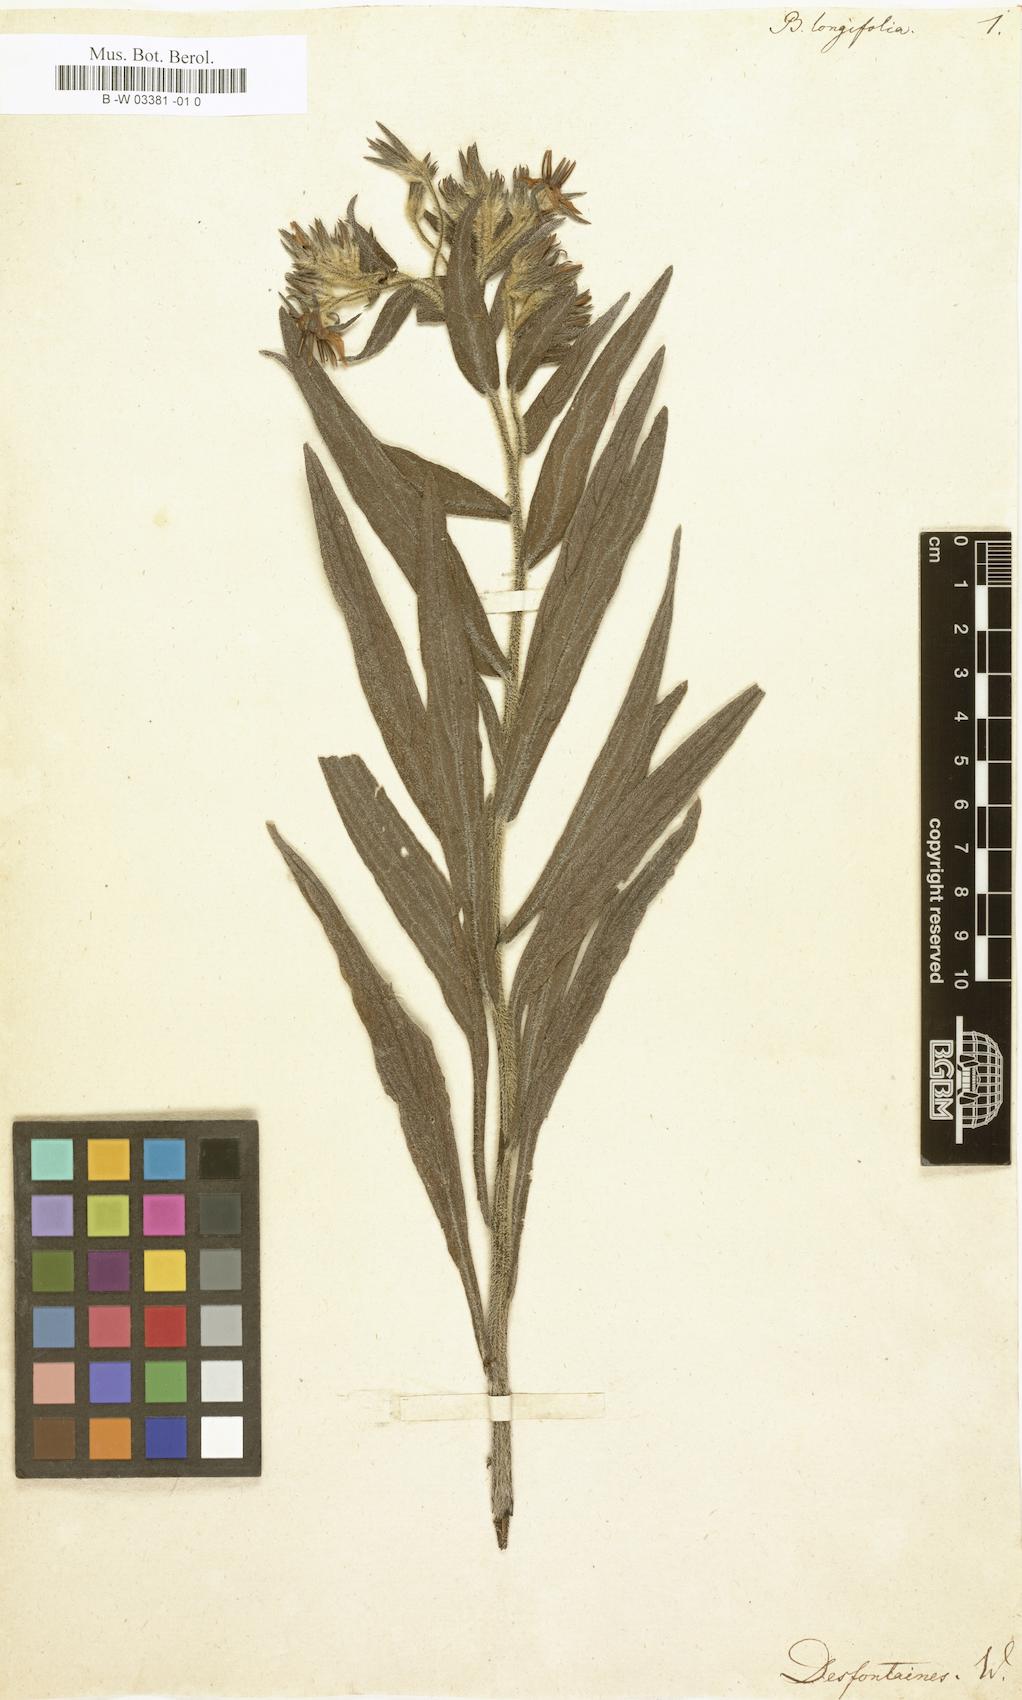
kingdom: Plantae
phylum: Tracheophyta
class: Magnoliopsida
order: Boraginales
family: Boraginaceae
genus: Borago
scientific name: Borago longifolia
